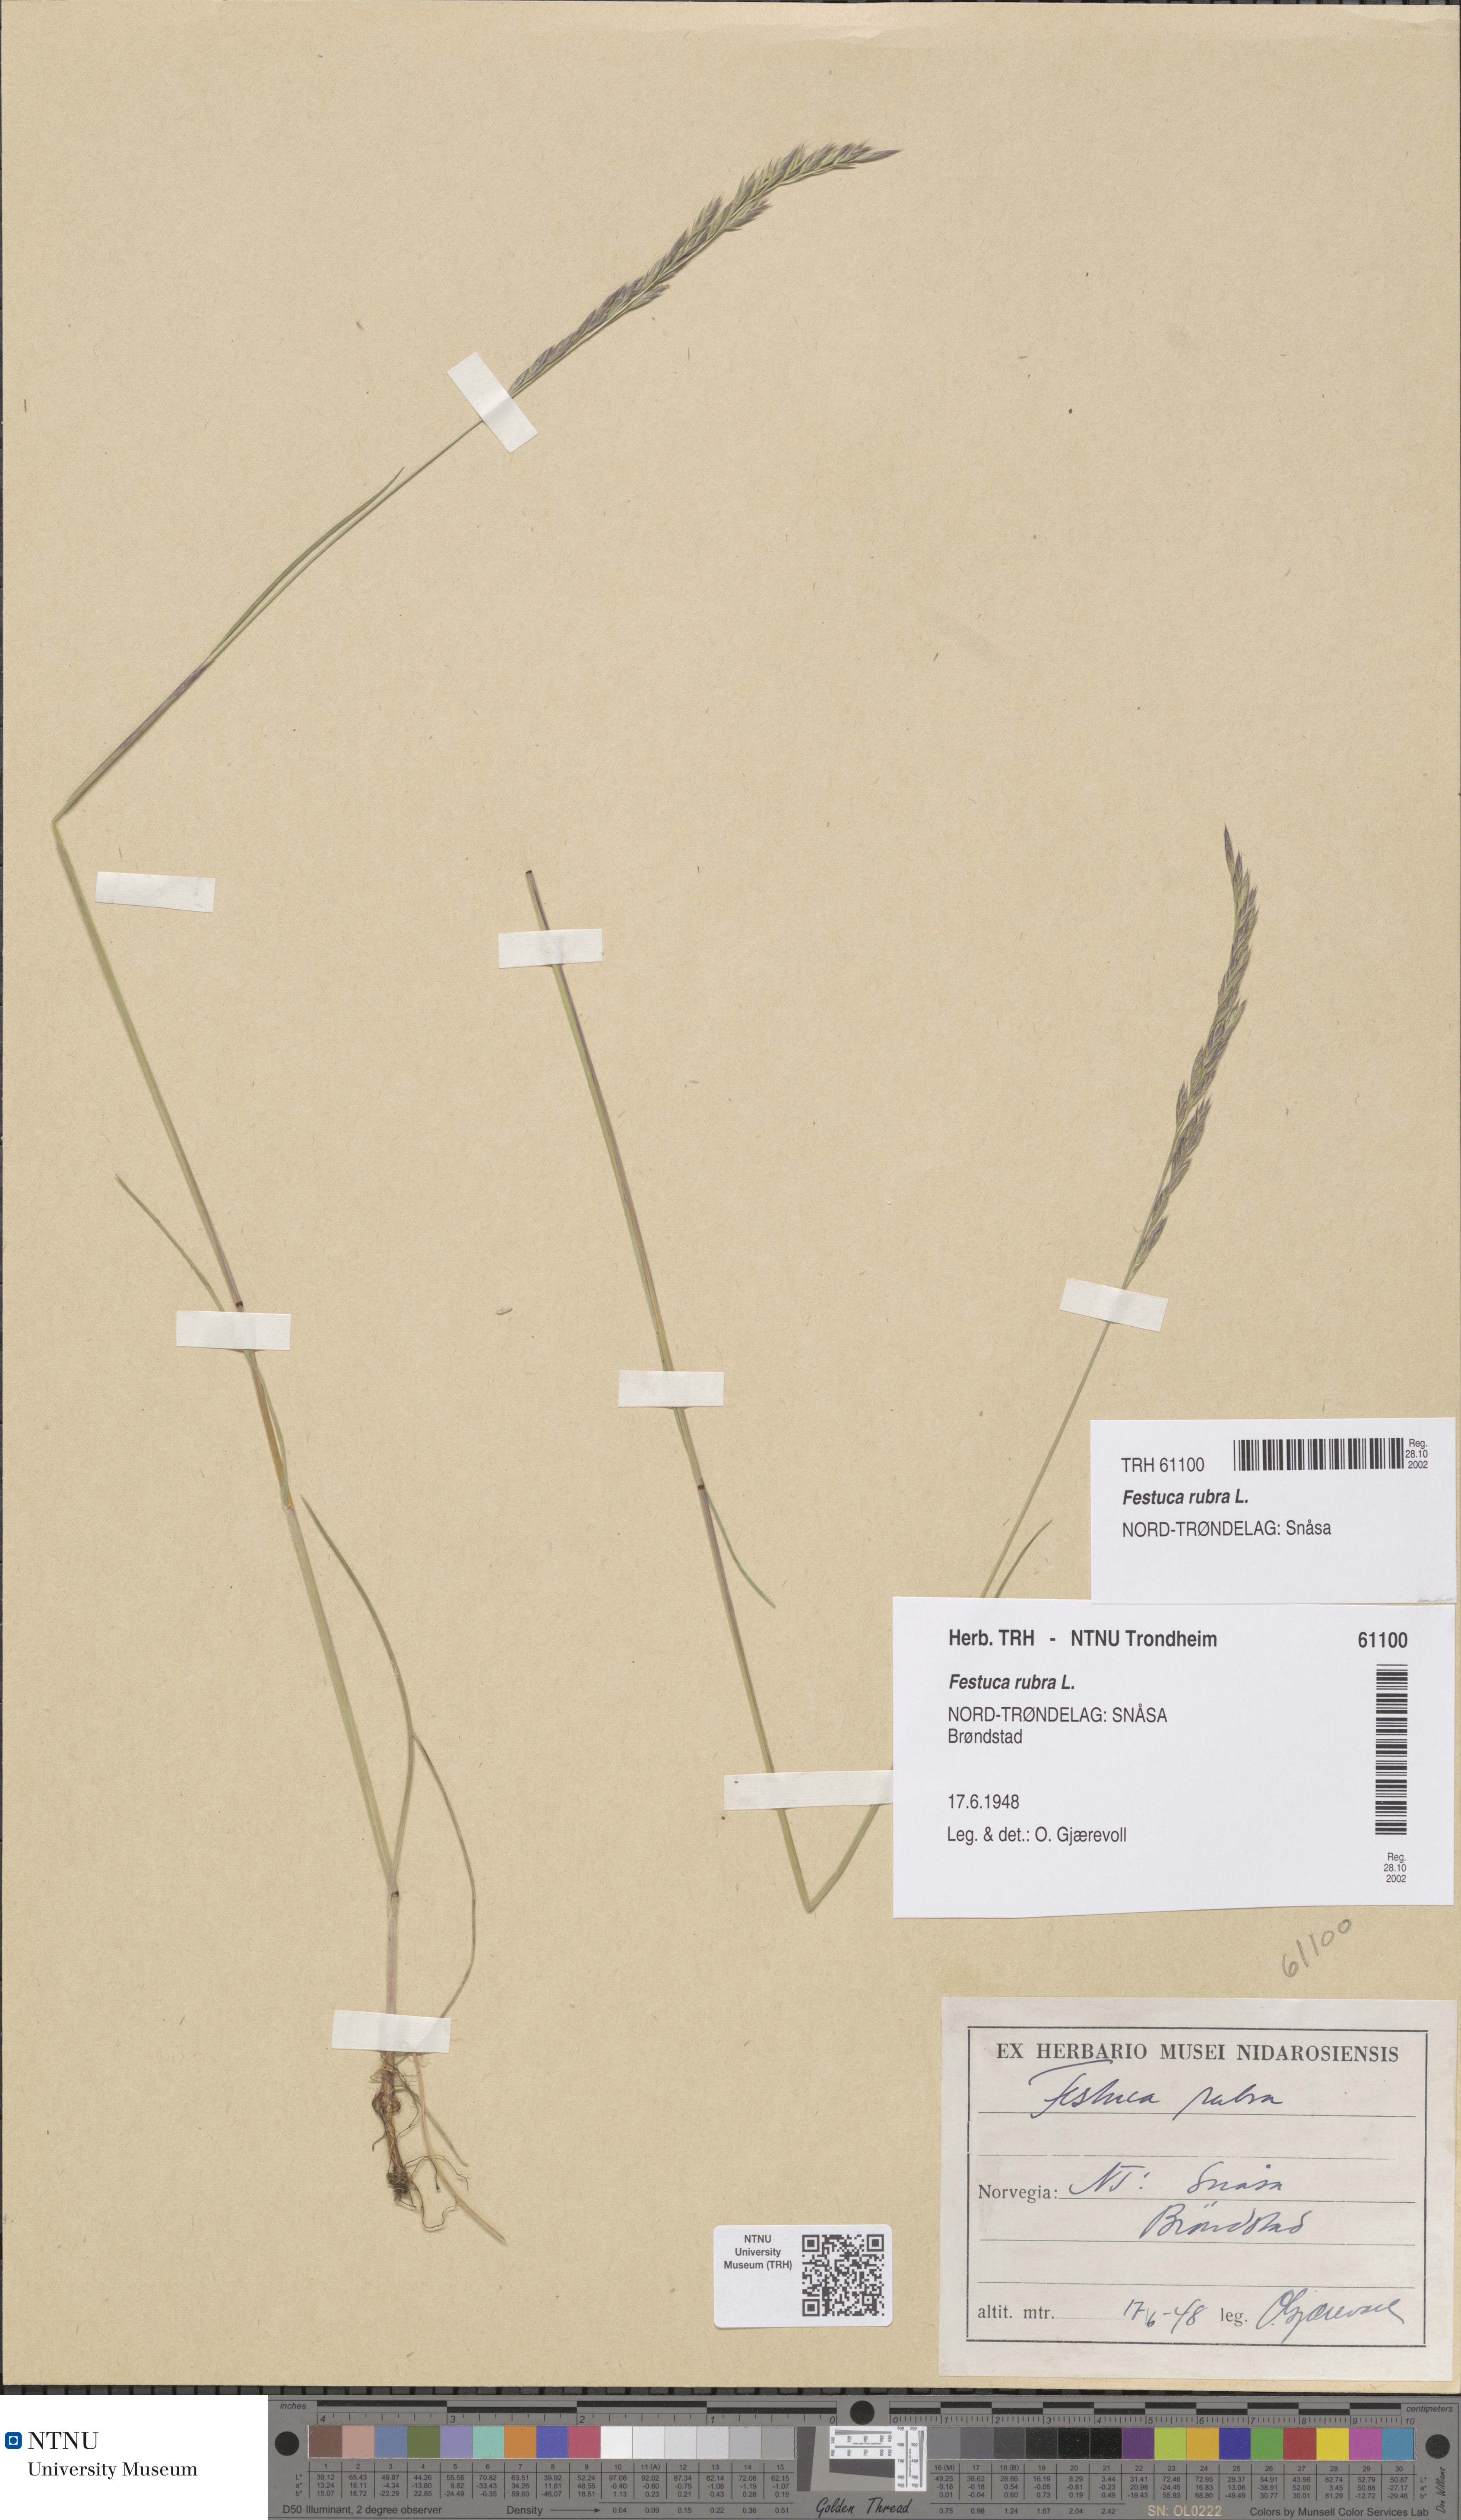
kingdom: Plantae
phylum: Tracheophyta
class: Liliopsida
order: Poales
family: Poaceae
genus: Festuca
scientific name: Festuca rubra
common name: Red fescue
